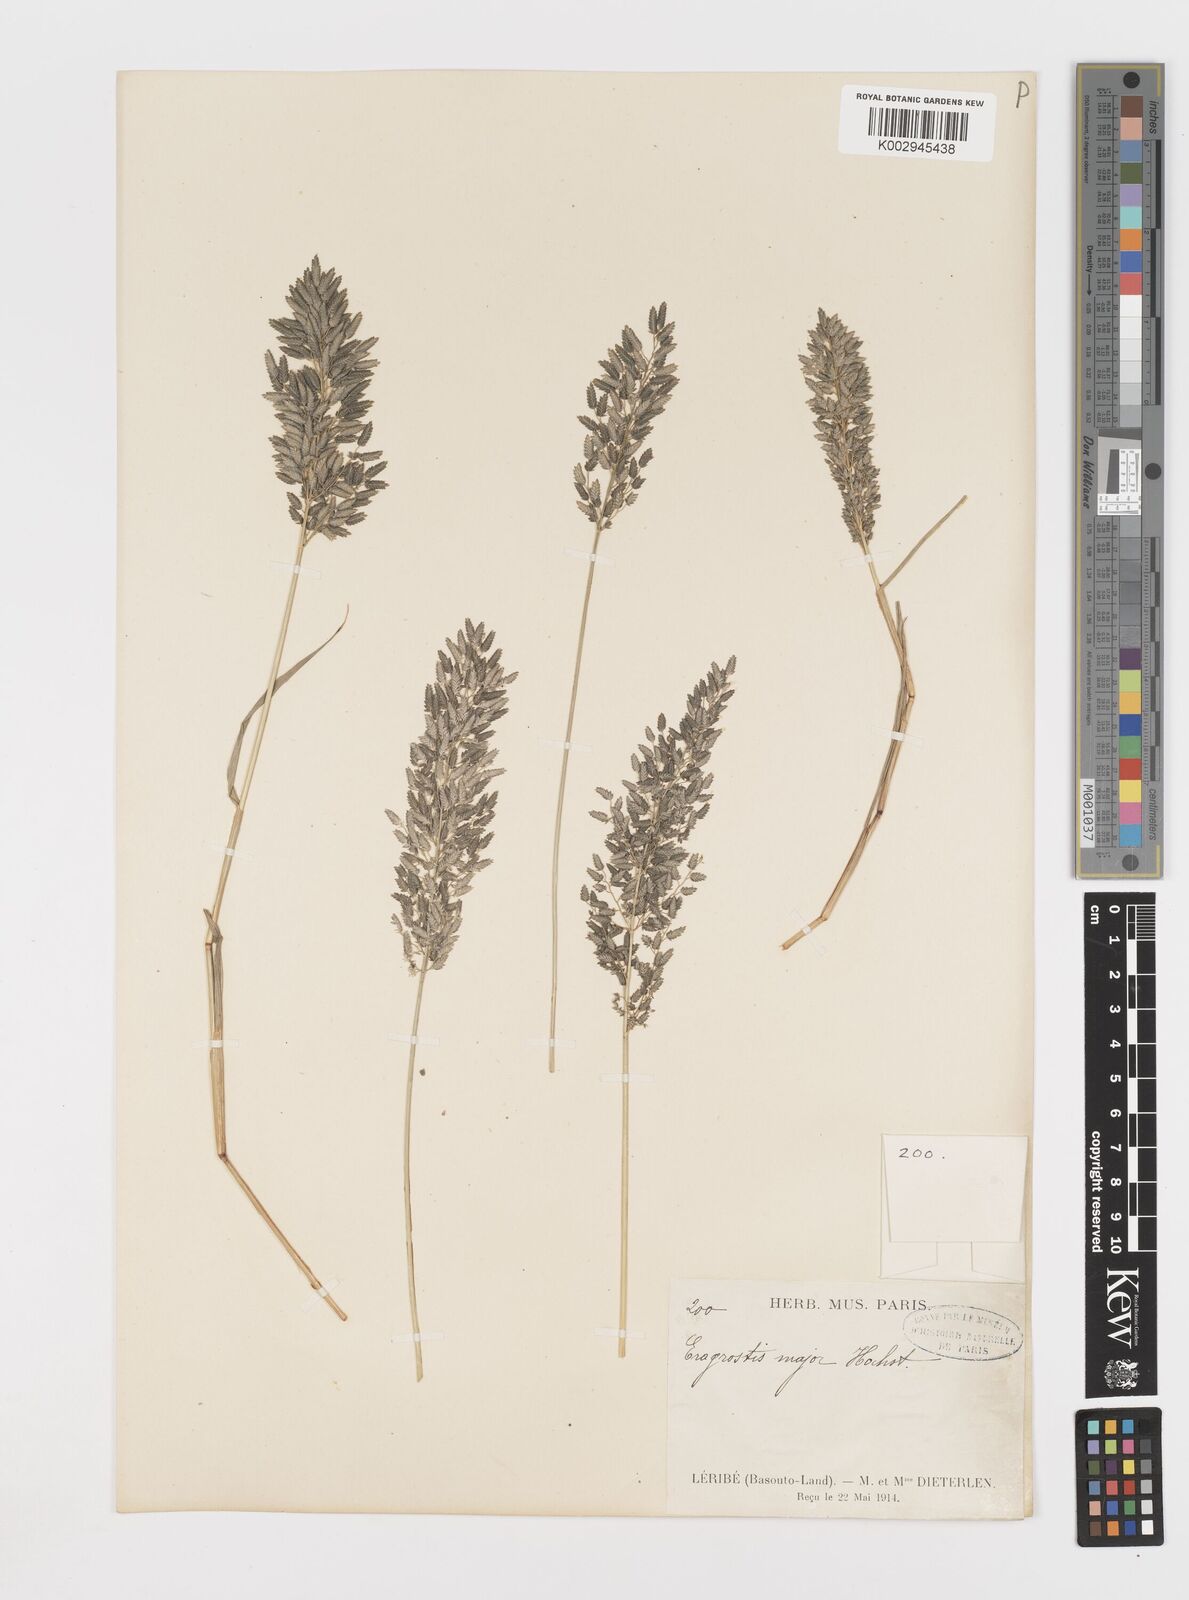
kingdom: Plantae
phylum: Tracheophyta
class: Liliopsida
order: Poales
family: Poaceae
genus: Eragrostis
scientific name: Eragrostis cilianensis
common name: Stinkgrass
